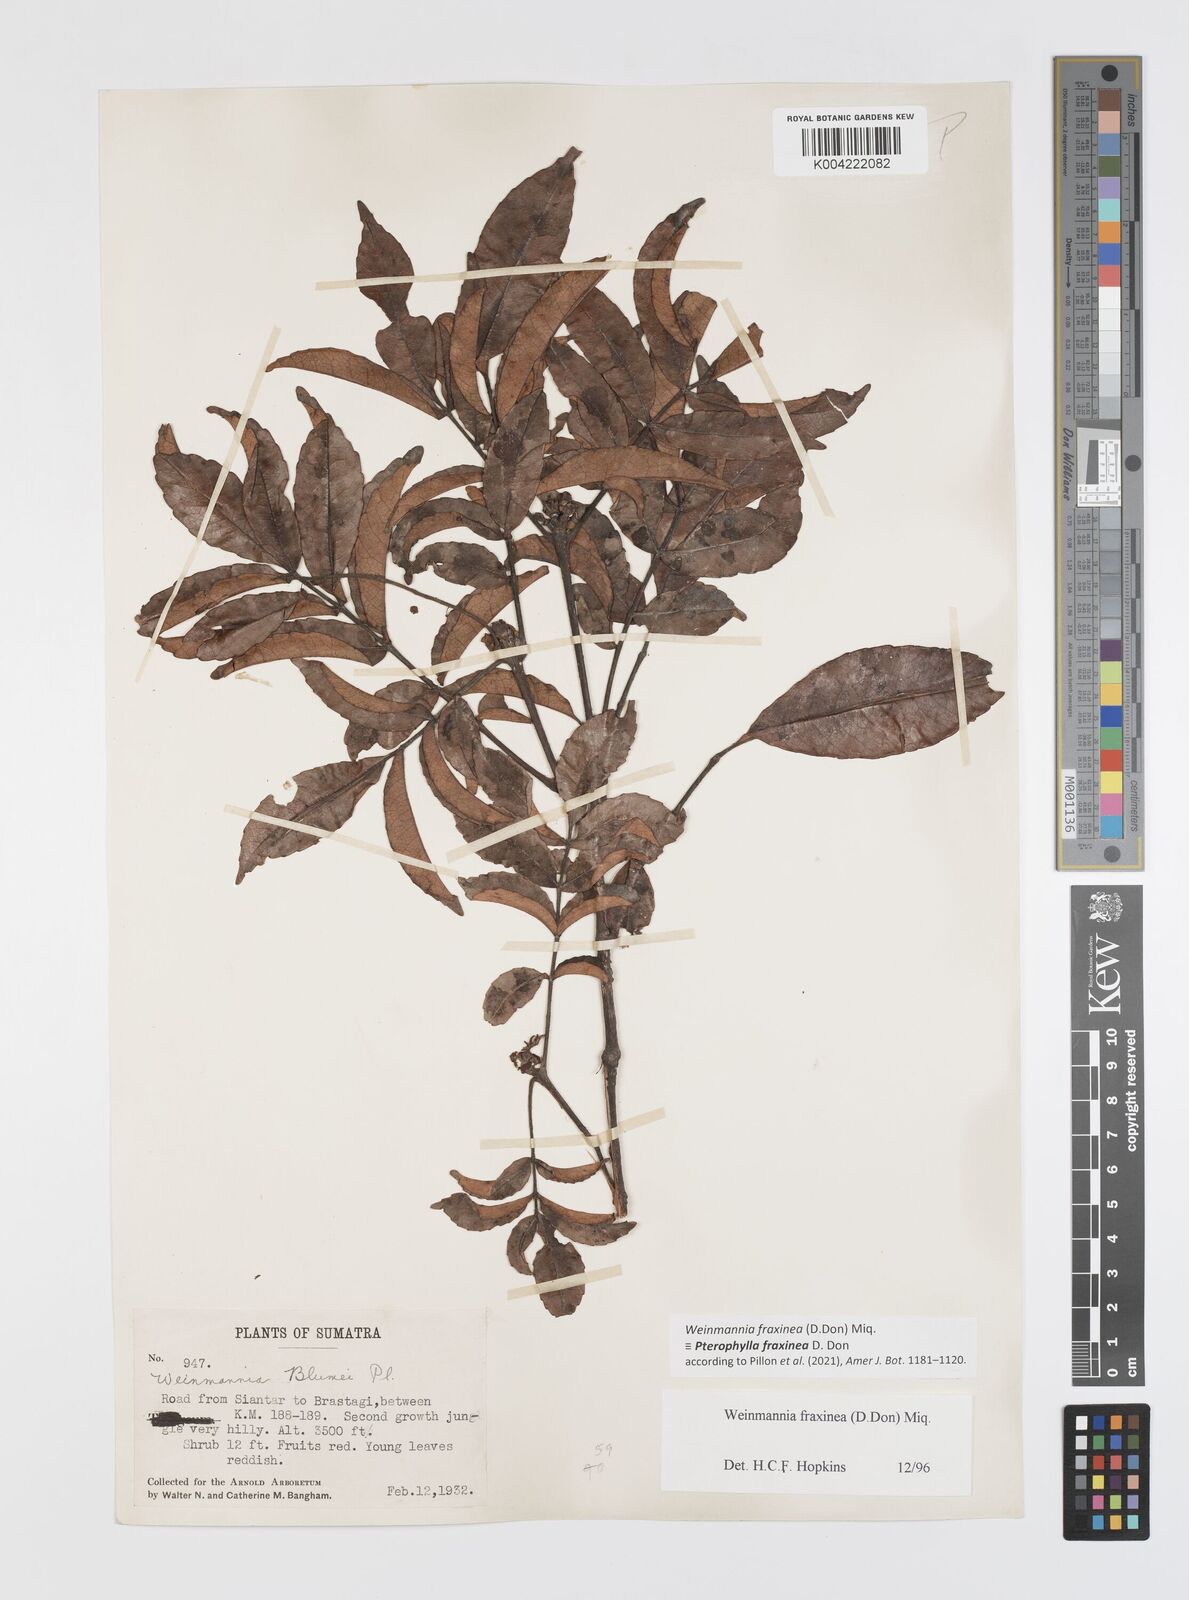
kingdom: Plantae
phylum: Tracheophyta
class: Magnoliopsida
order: Oxalidales
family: Cunoniaceae
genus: Pterophylla
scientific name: Pterophylla fraxinea
